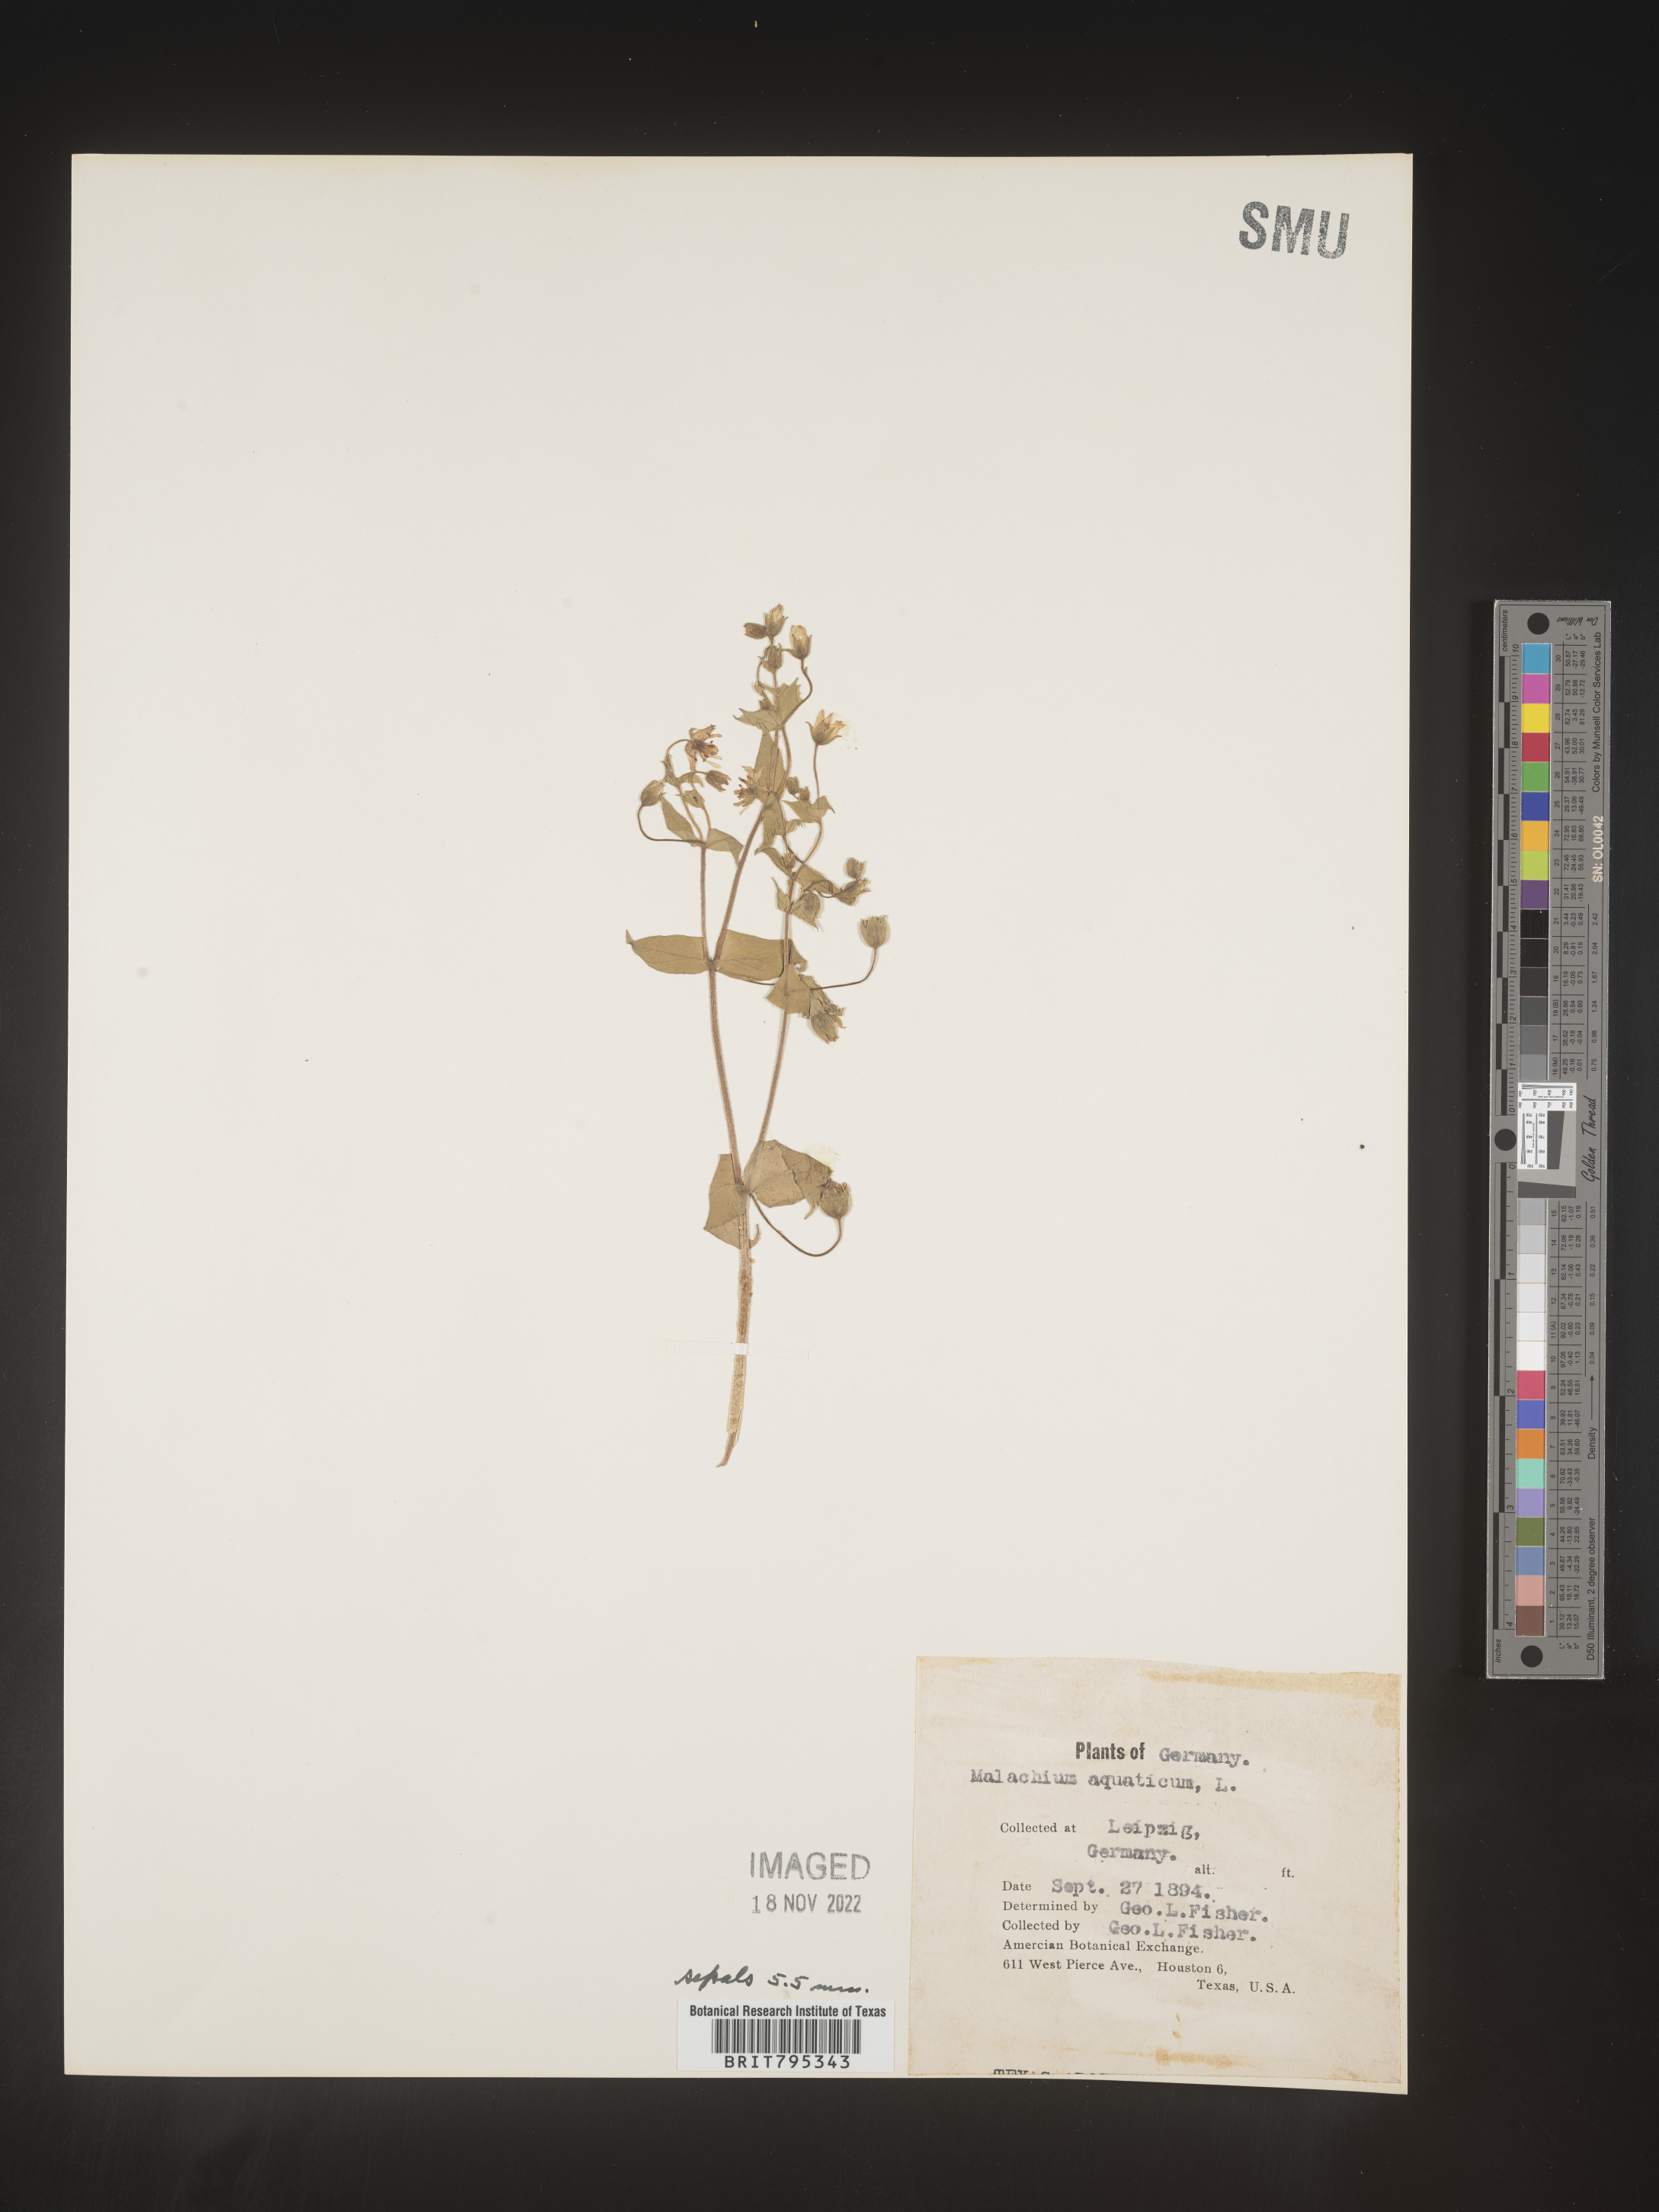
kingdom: Plantae
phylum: Tracheophyta
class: Magnoliopsida
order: Caryophyllales
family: Caryophyllaceae
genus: Stellaria
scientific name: Stellaria
